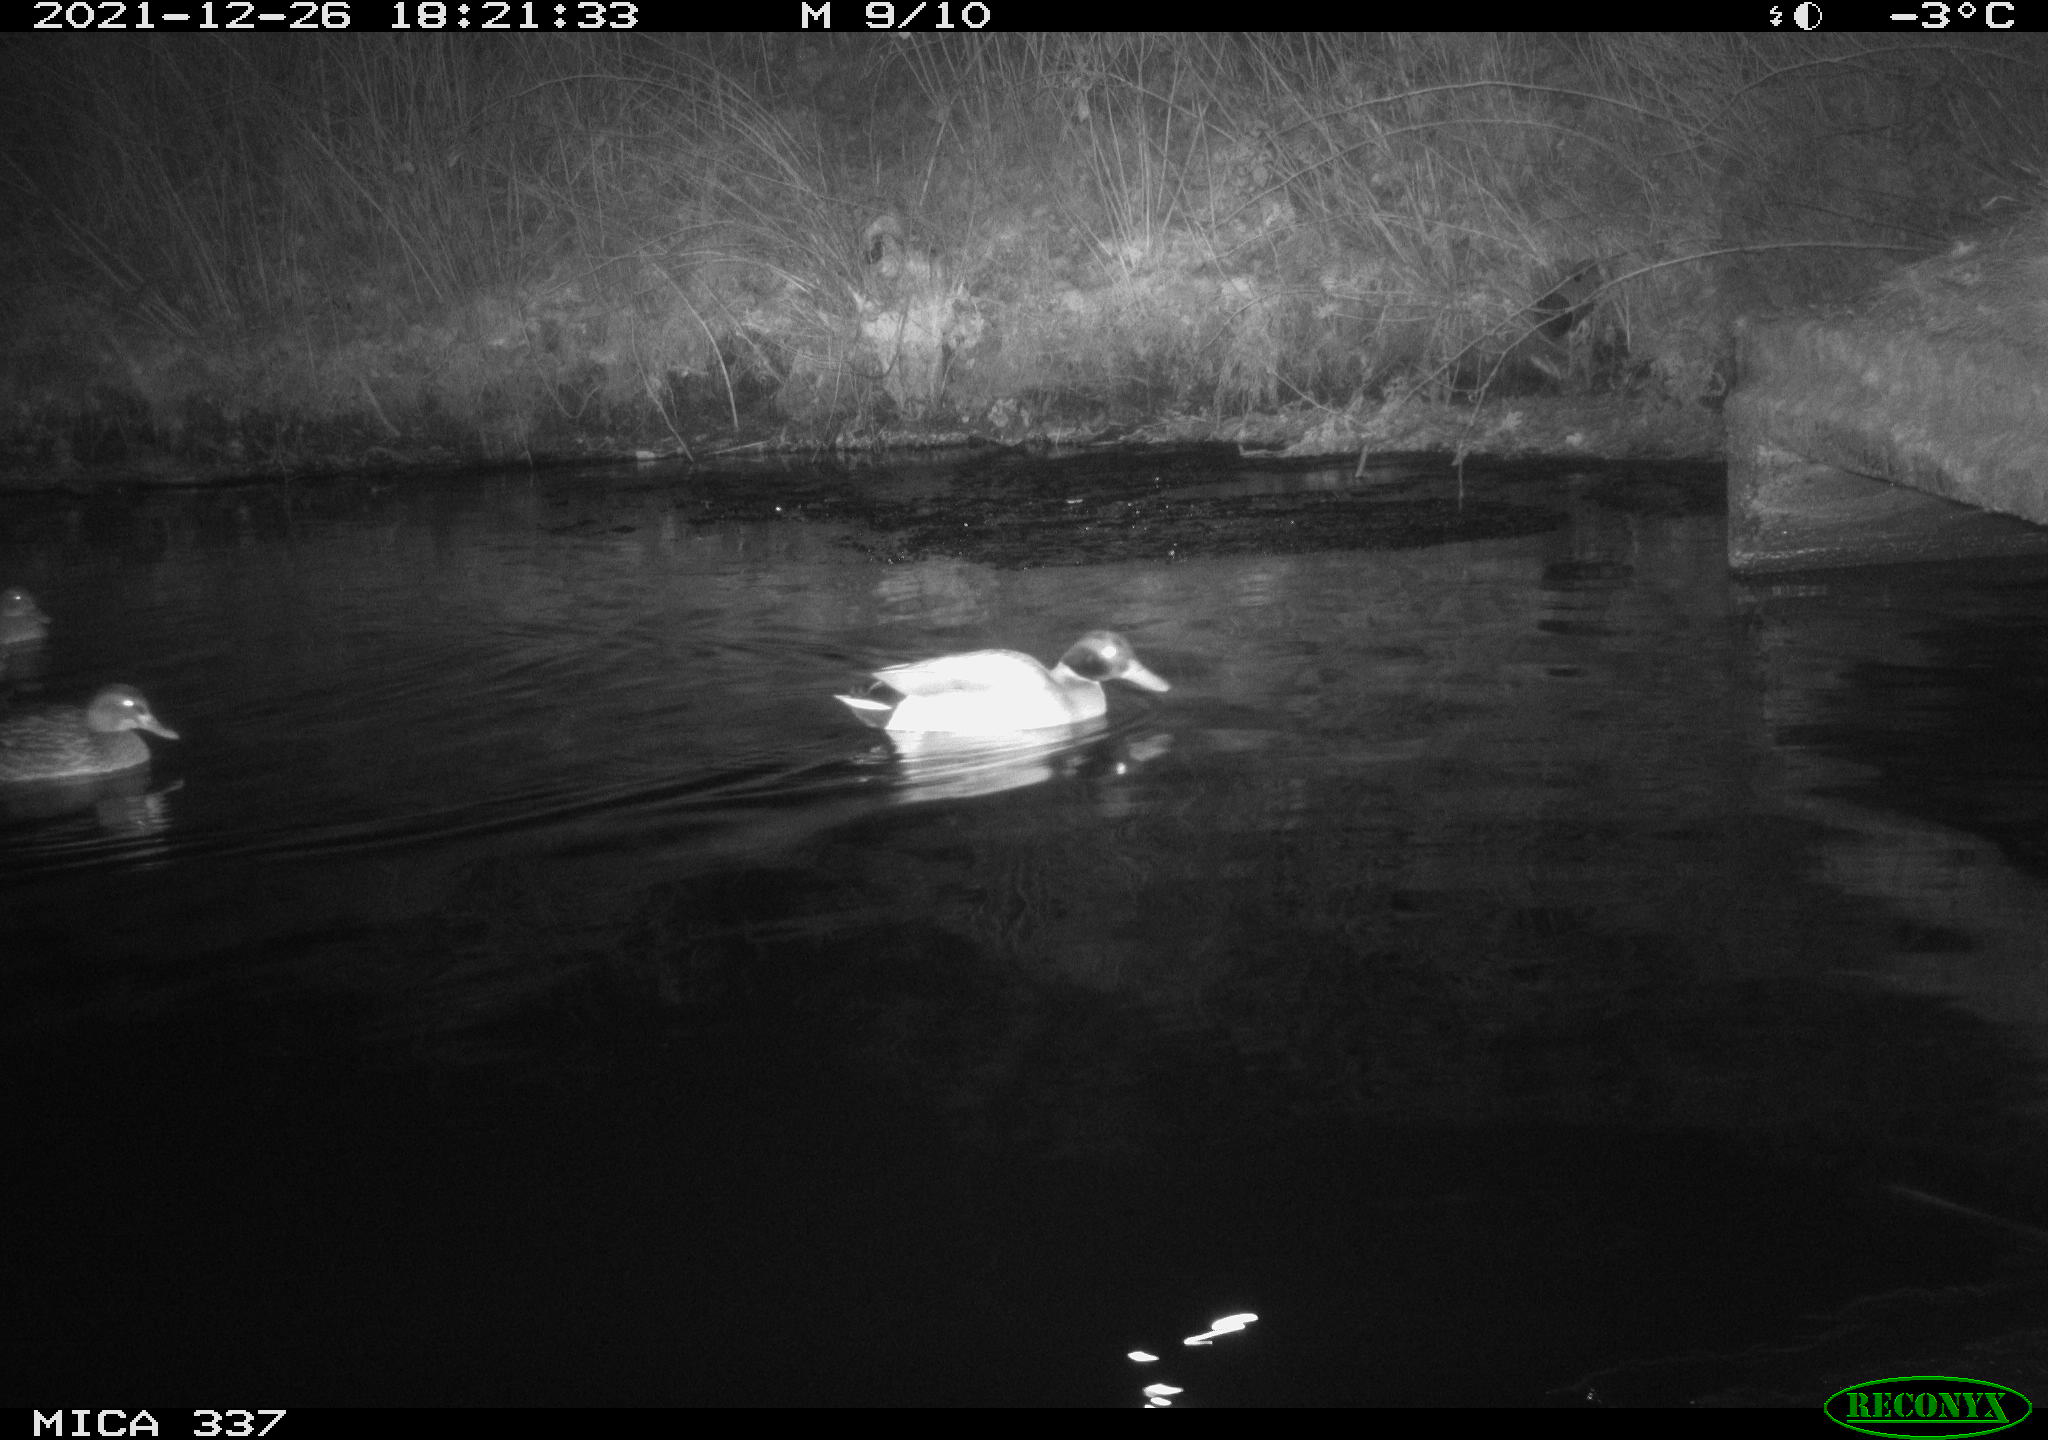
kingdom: Animalia
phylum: Chordata
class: Aves
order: Anseriformes
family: Anatidae
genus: Anas
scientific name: Anas platyrhynchos
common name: Mallard
